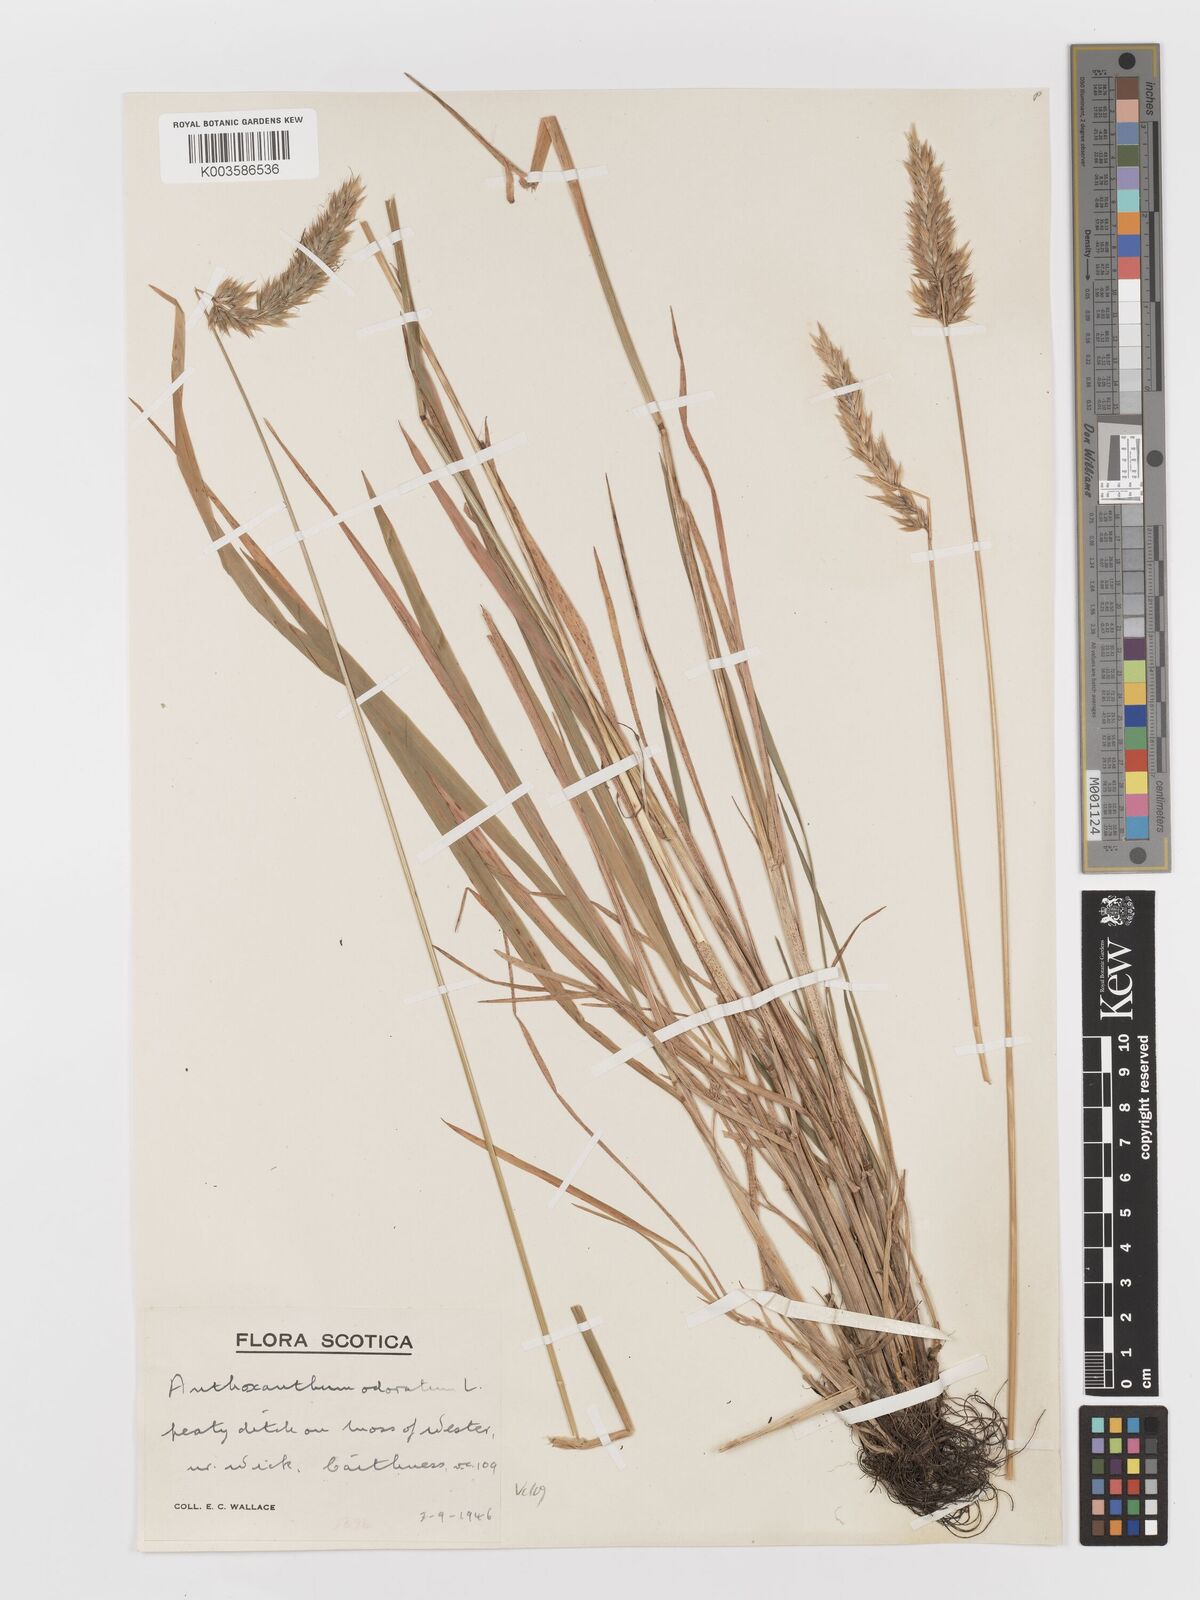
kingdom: Plantae
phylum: Tracheophyta
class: Liliopsida
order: Poales
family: Poaceae
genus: Anthoxanthum
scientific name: Anthoxanthum odoratum
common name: Sweet vernalgrass
